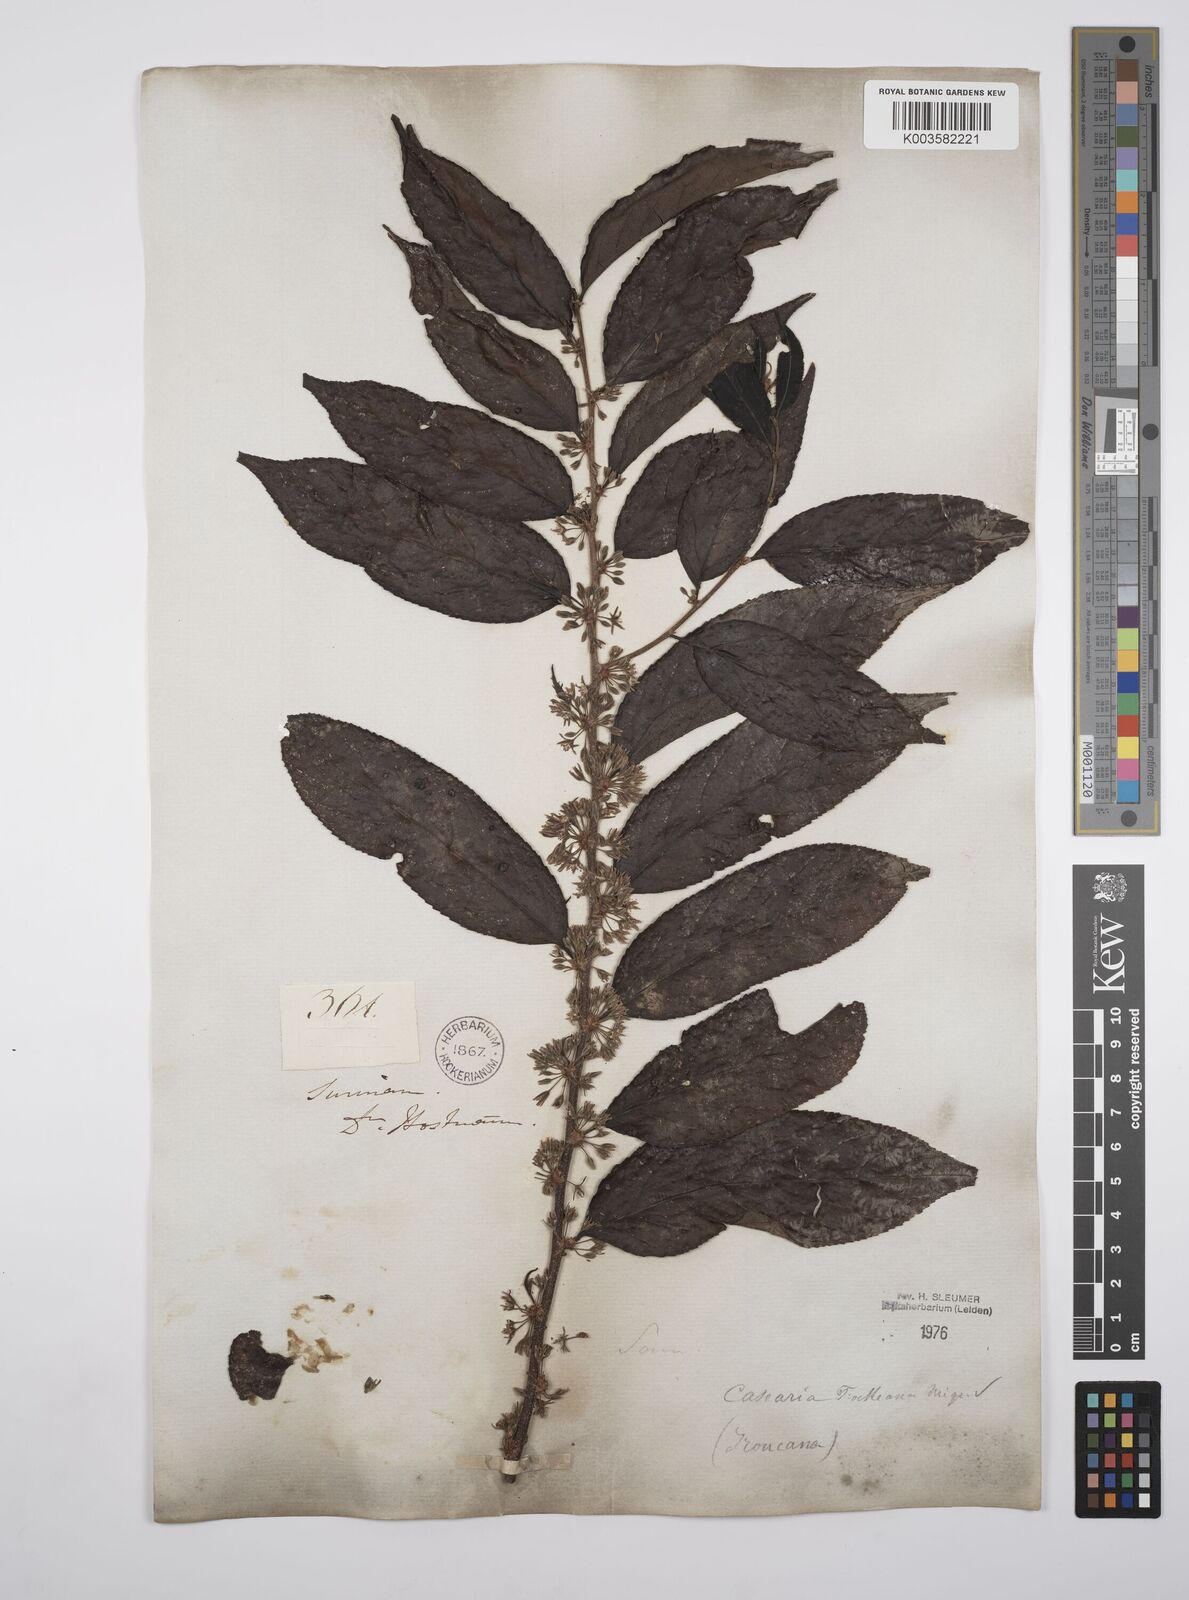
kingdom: Plantae
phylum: Tracheophyta
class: Magnoliopsida
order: Malpighiales
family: Salicaceae
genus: Casearia
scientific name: Casearia mariquitensis
